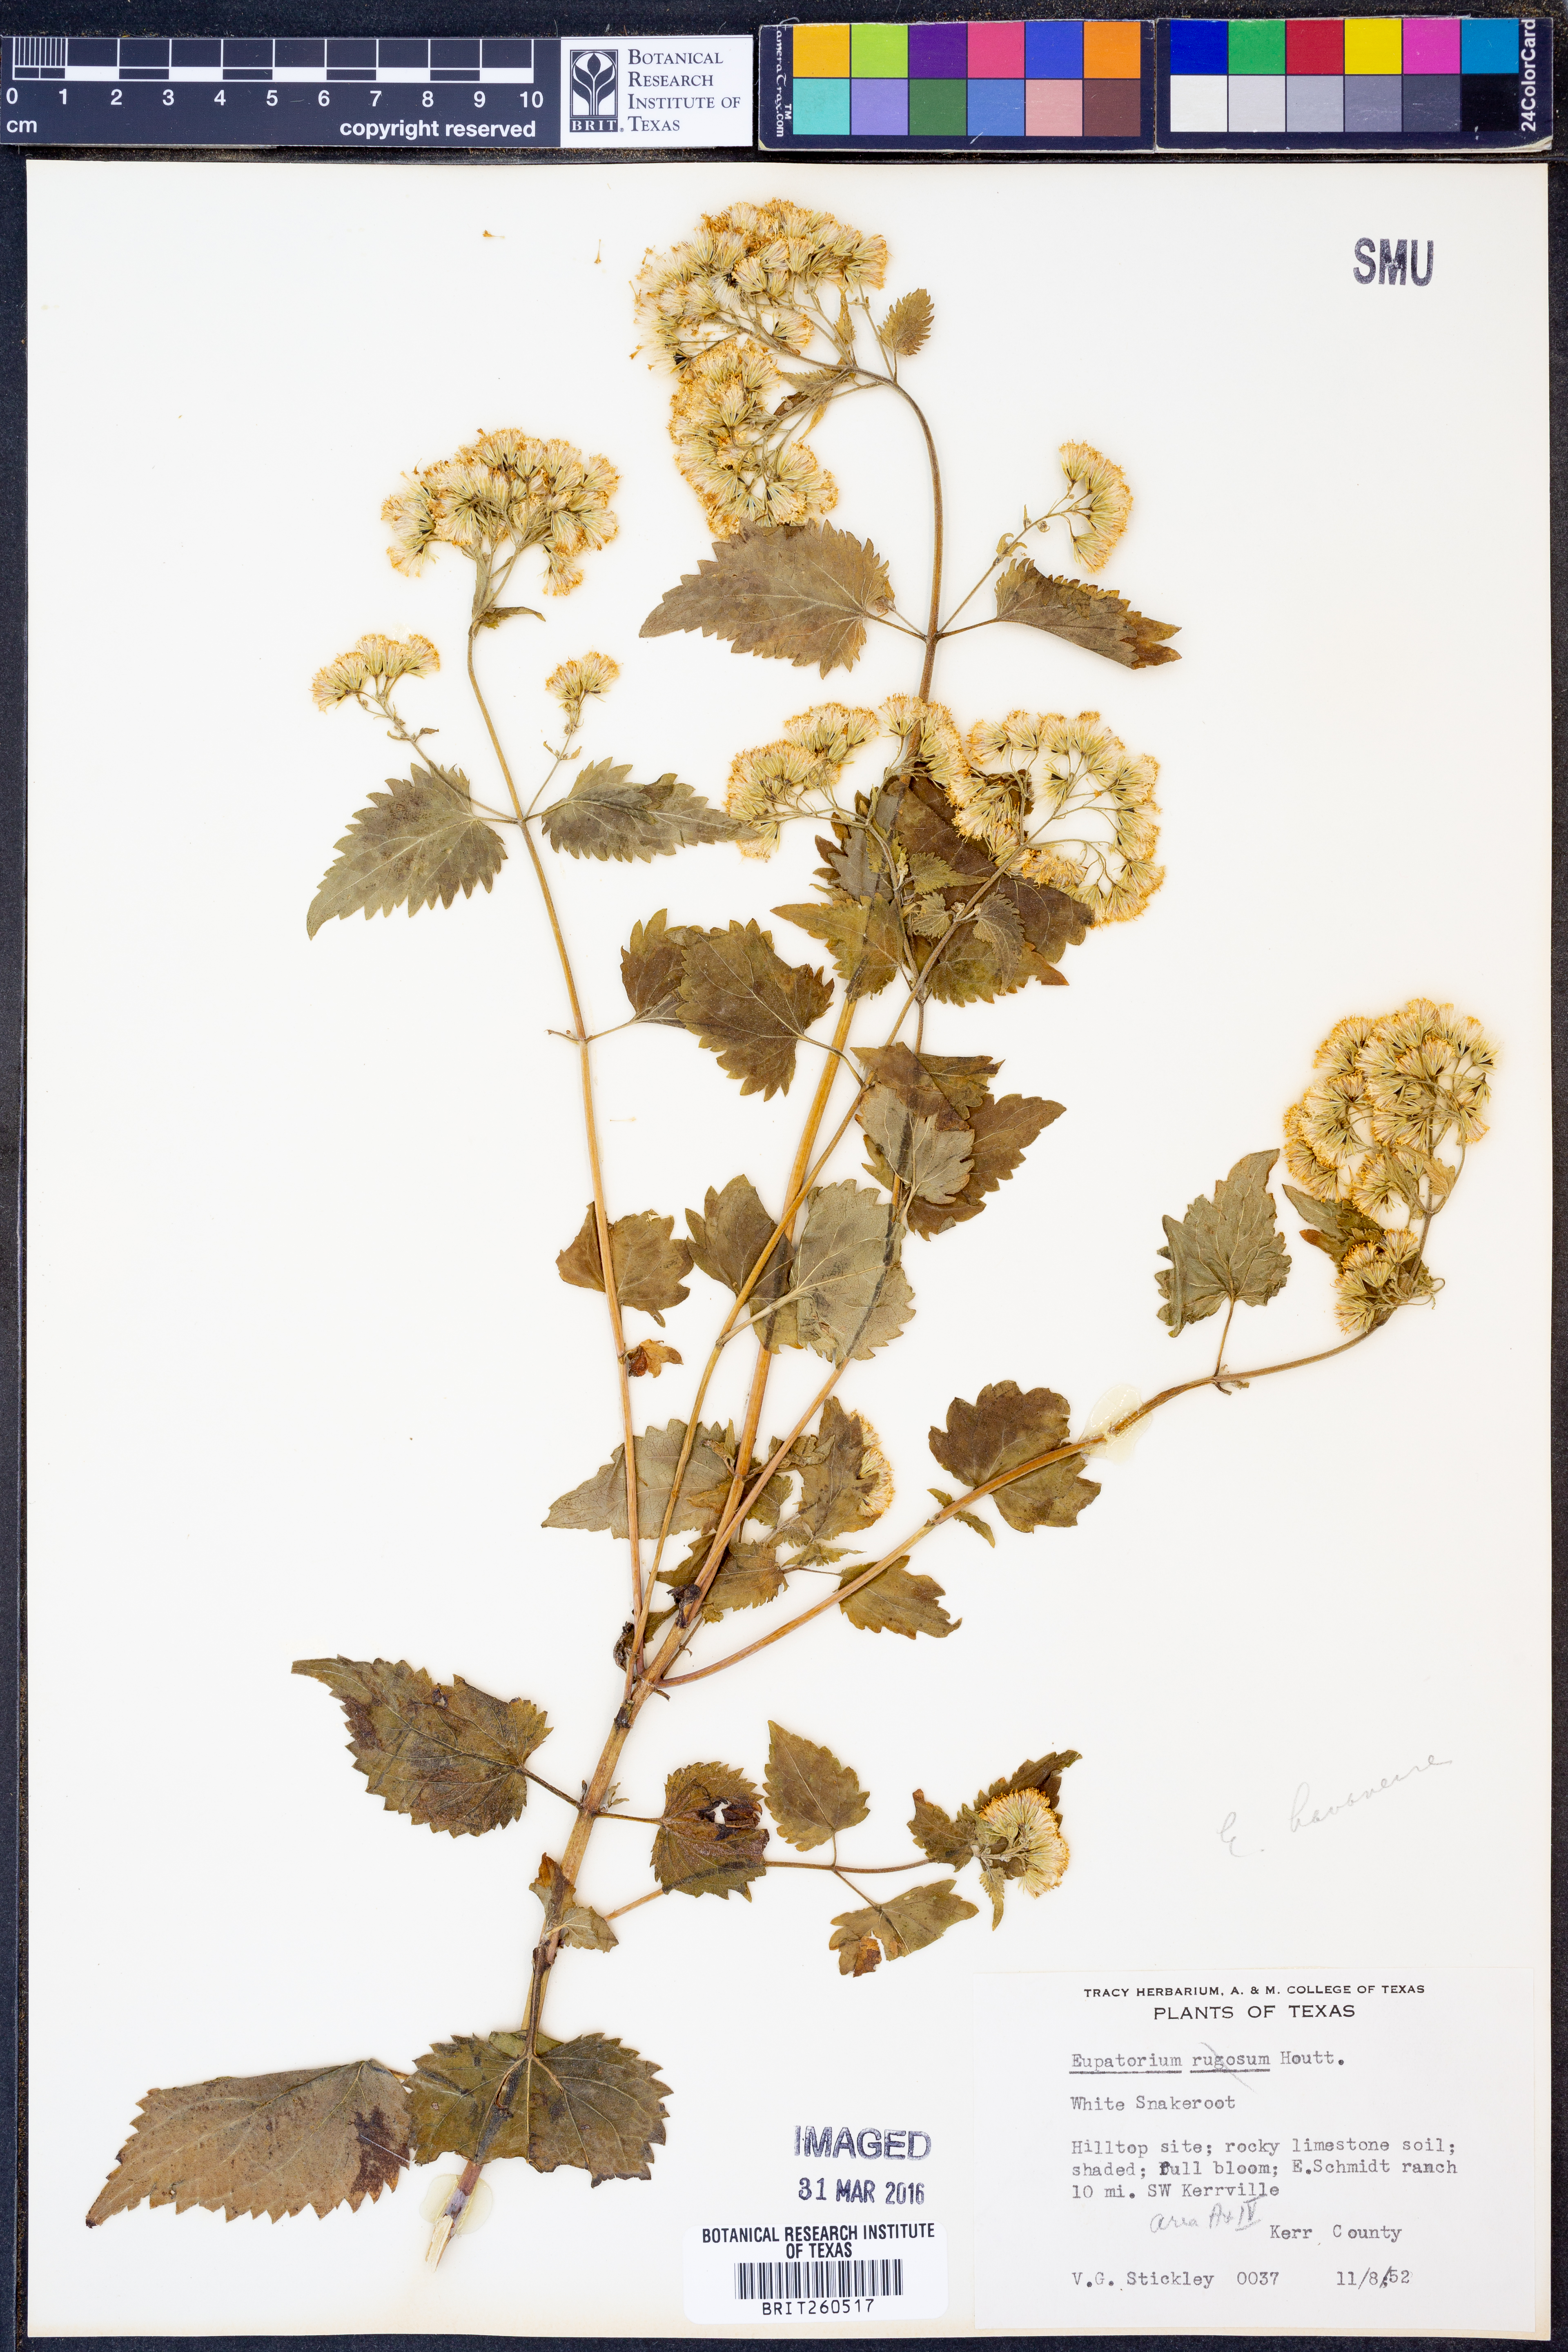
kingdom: Plantae
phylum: Tracheophyta
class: Magnoliopsida
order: Asterales
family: Asteraceae
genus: Ageratina
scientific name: Ageratina havanensis
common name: Havana snakeroot
